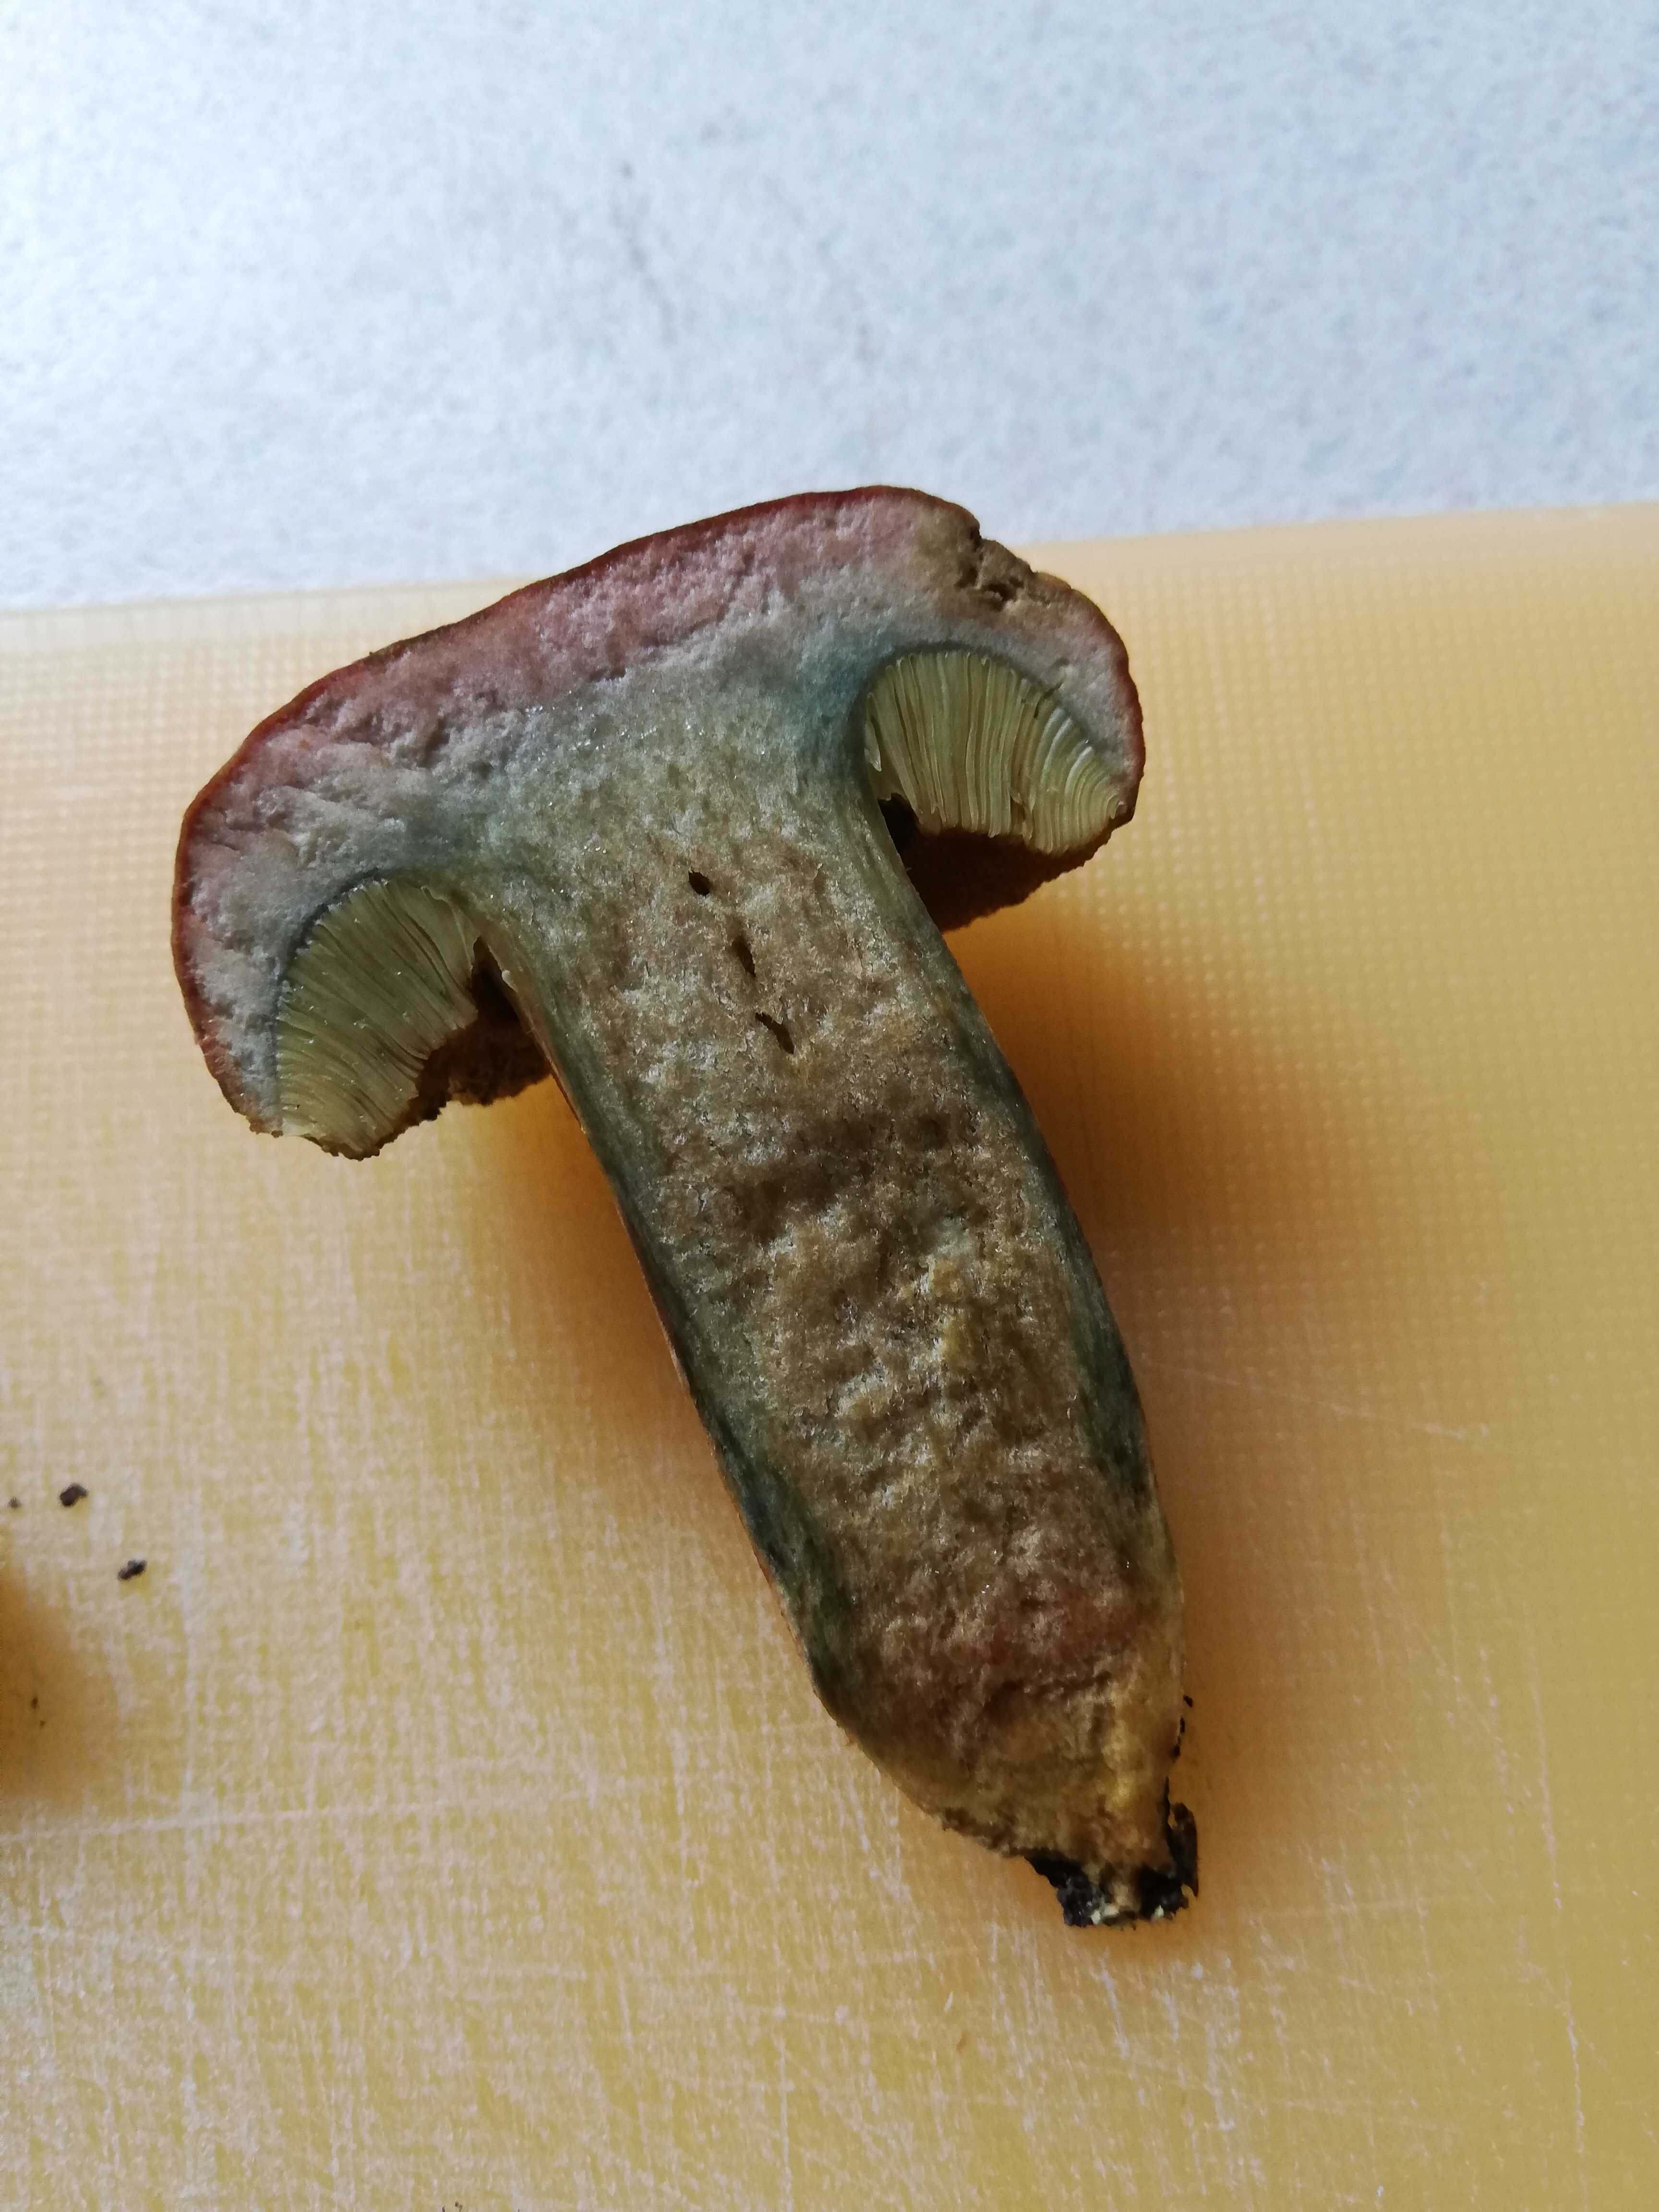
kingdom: Fungi
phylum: Basidiomycota
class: Agaricomycetes
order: Boletales
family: Boletaceae
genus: Hortiboletus
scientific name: Hortiboletus bubalinus
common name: aurora-rørhat
